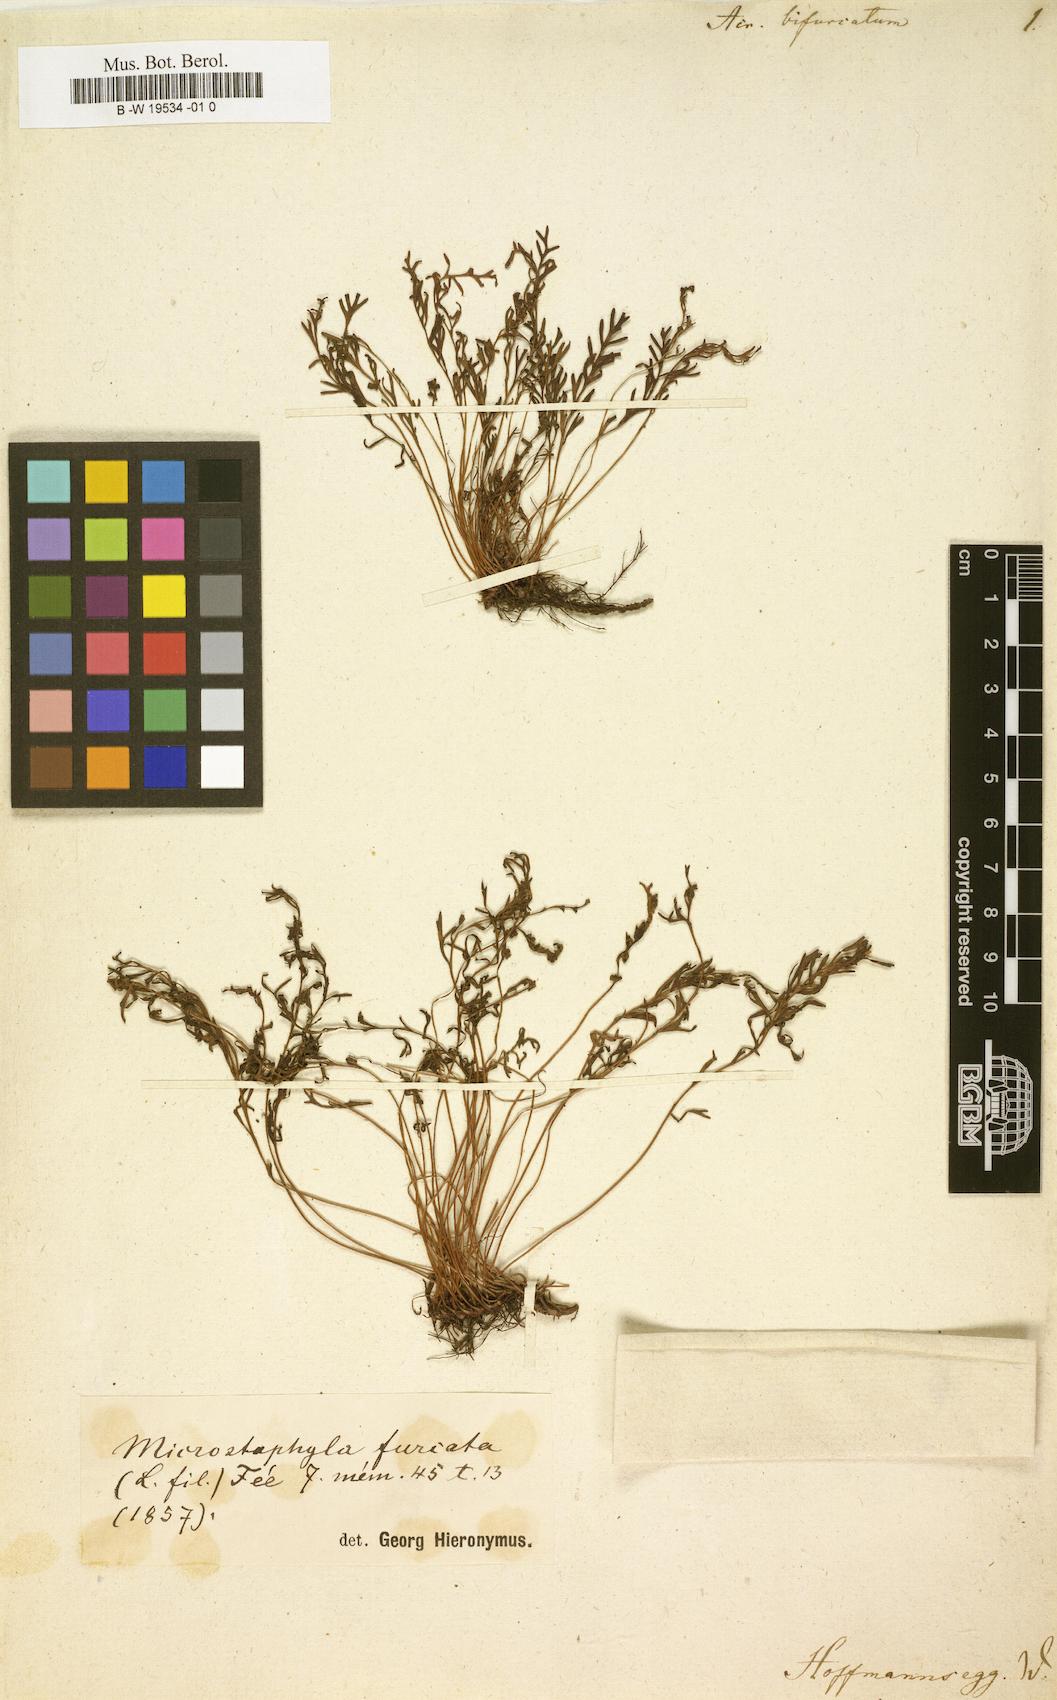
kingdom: Plantae
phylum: Tracheophyta
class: Polypodiopsida
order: Polypodiales
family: Polypodiaceae
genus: Platycerium
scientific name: Platycerium bifurcatum
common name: Elkhorn fern
